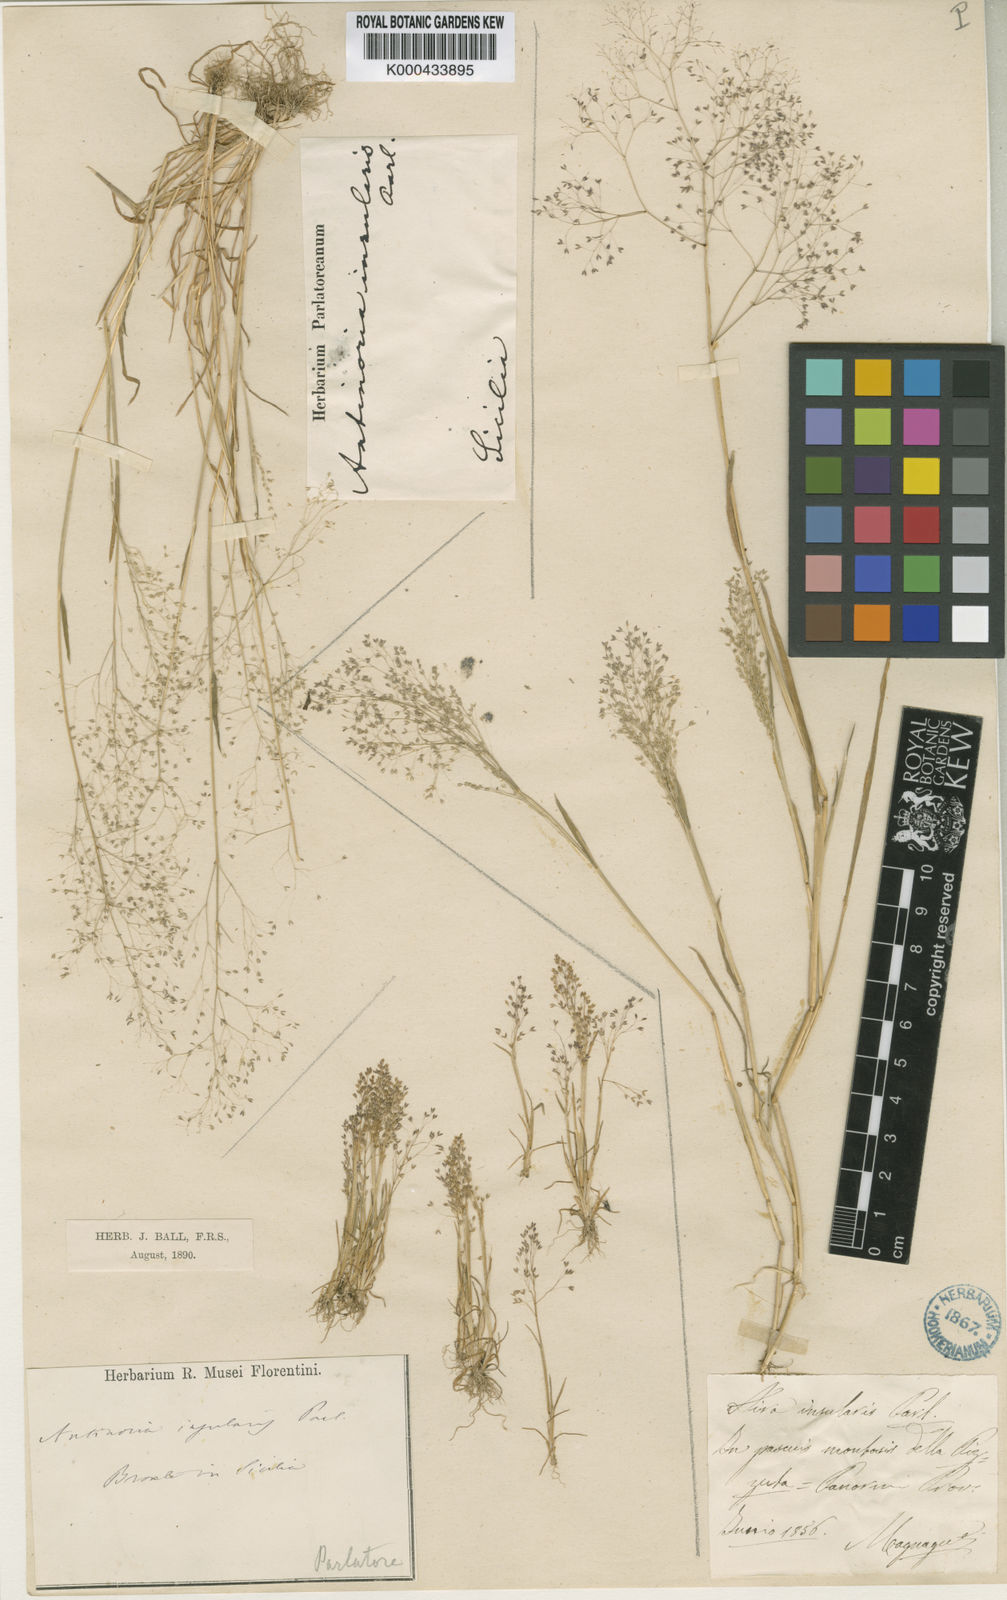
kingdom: Plantae
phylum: Tracheophyta
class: Liliopsida
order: Poales
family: Poaceae
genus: Antinoria
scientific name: Antinoria insularis
